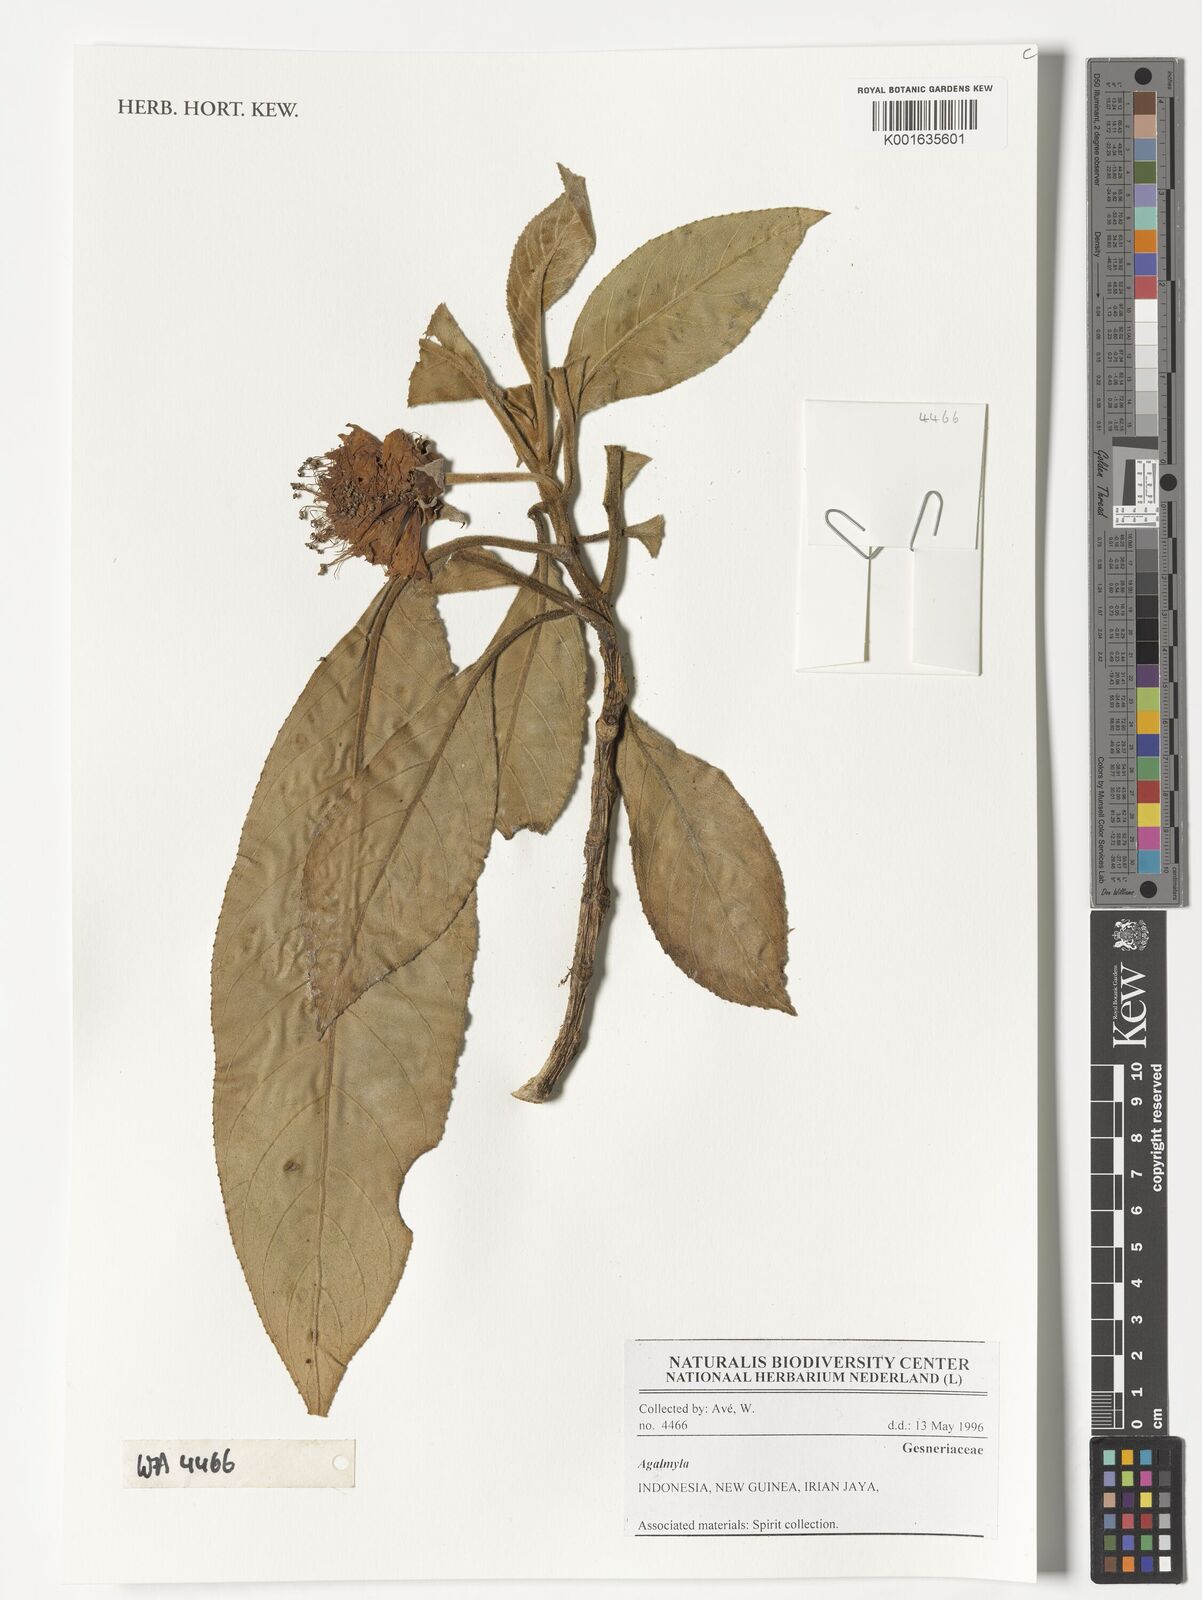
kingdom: Plantae
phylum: Tracheophyta
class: Magnoliopsida
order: Lamiales
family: Gesneriaceae
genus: Agalmyla
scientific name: Agalmyla
